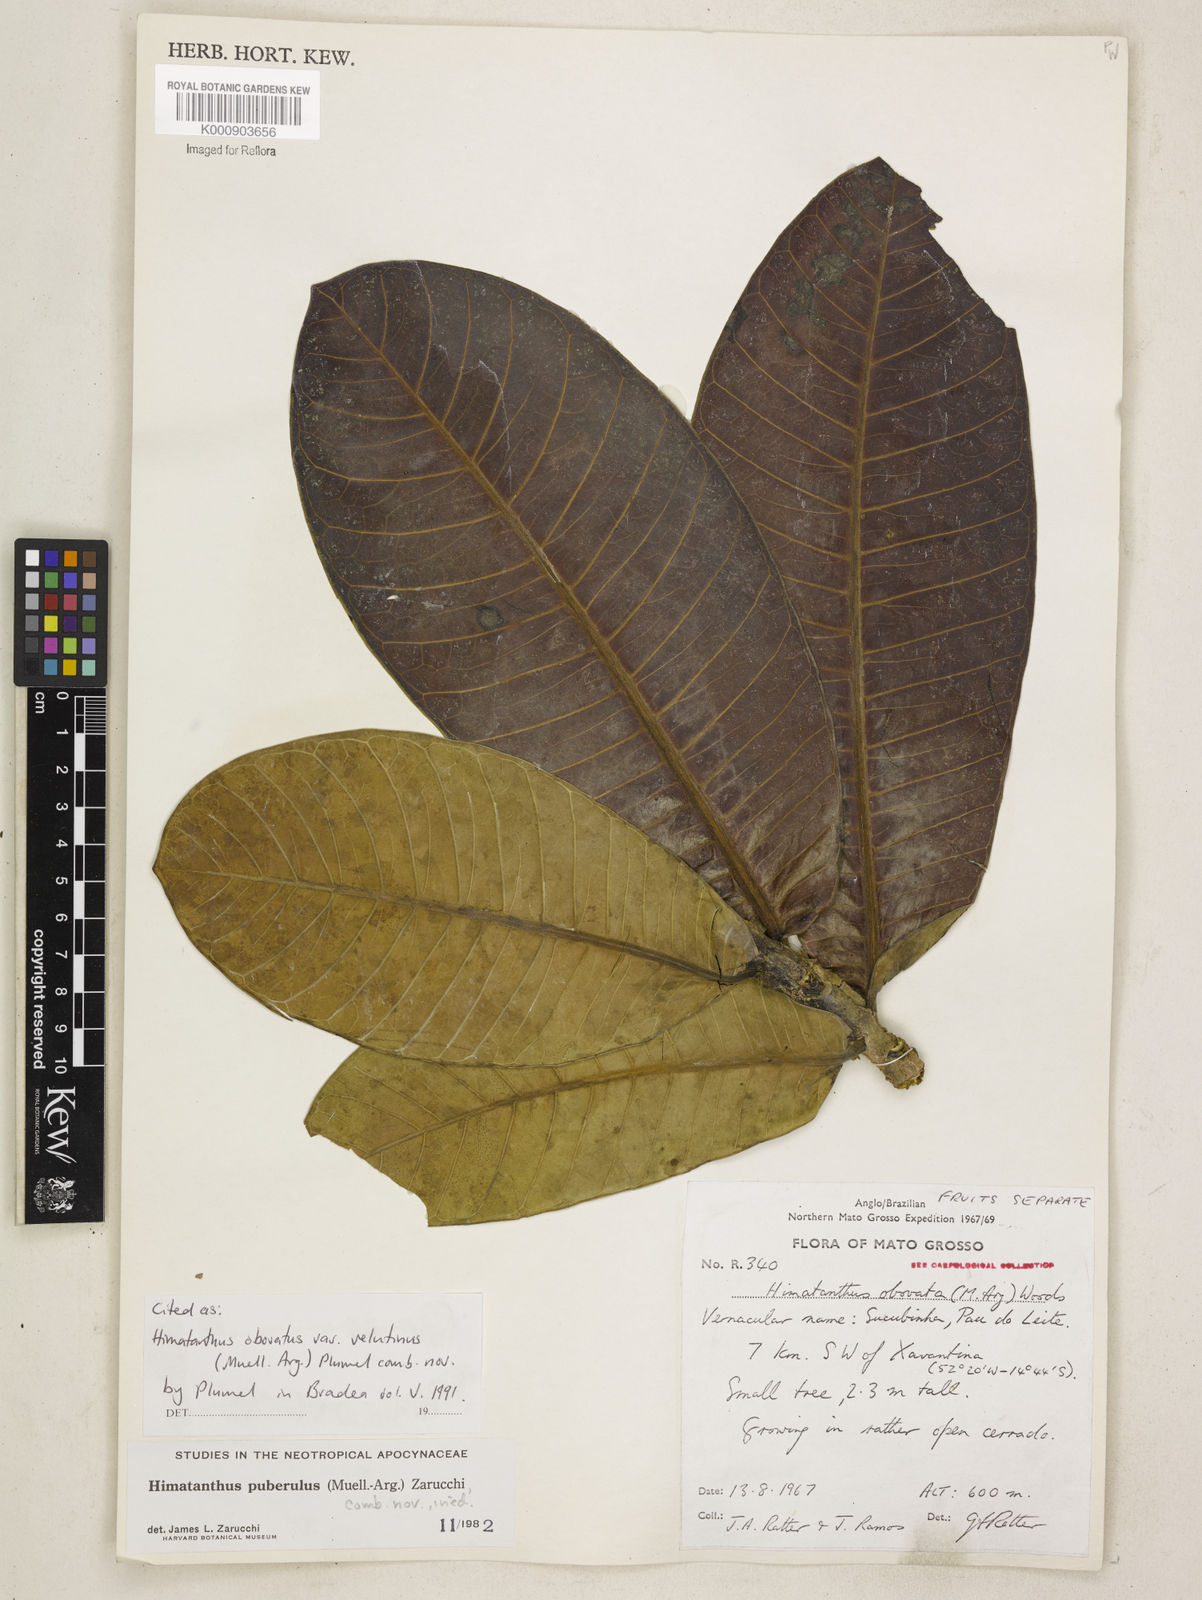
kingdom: Plantae
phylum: Tracheophyta
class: Magnoliopsida
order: Gentianales
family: Apocynaceae
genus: Himatanthus
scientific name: Himatanthus
